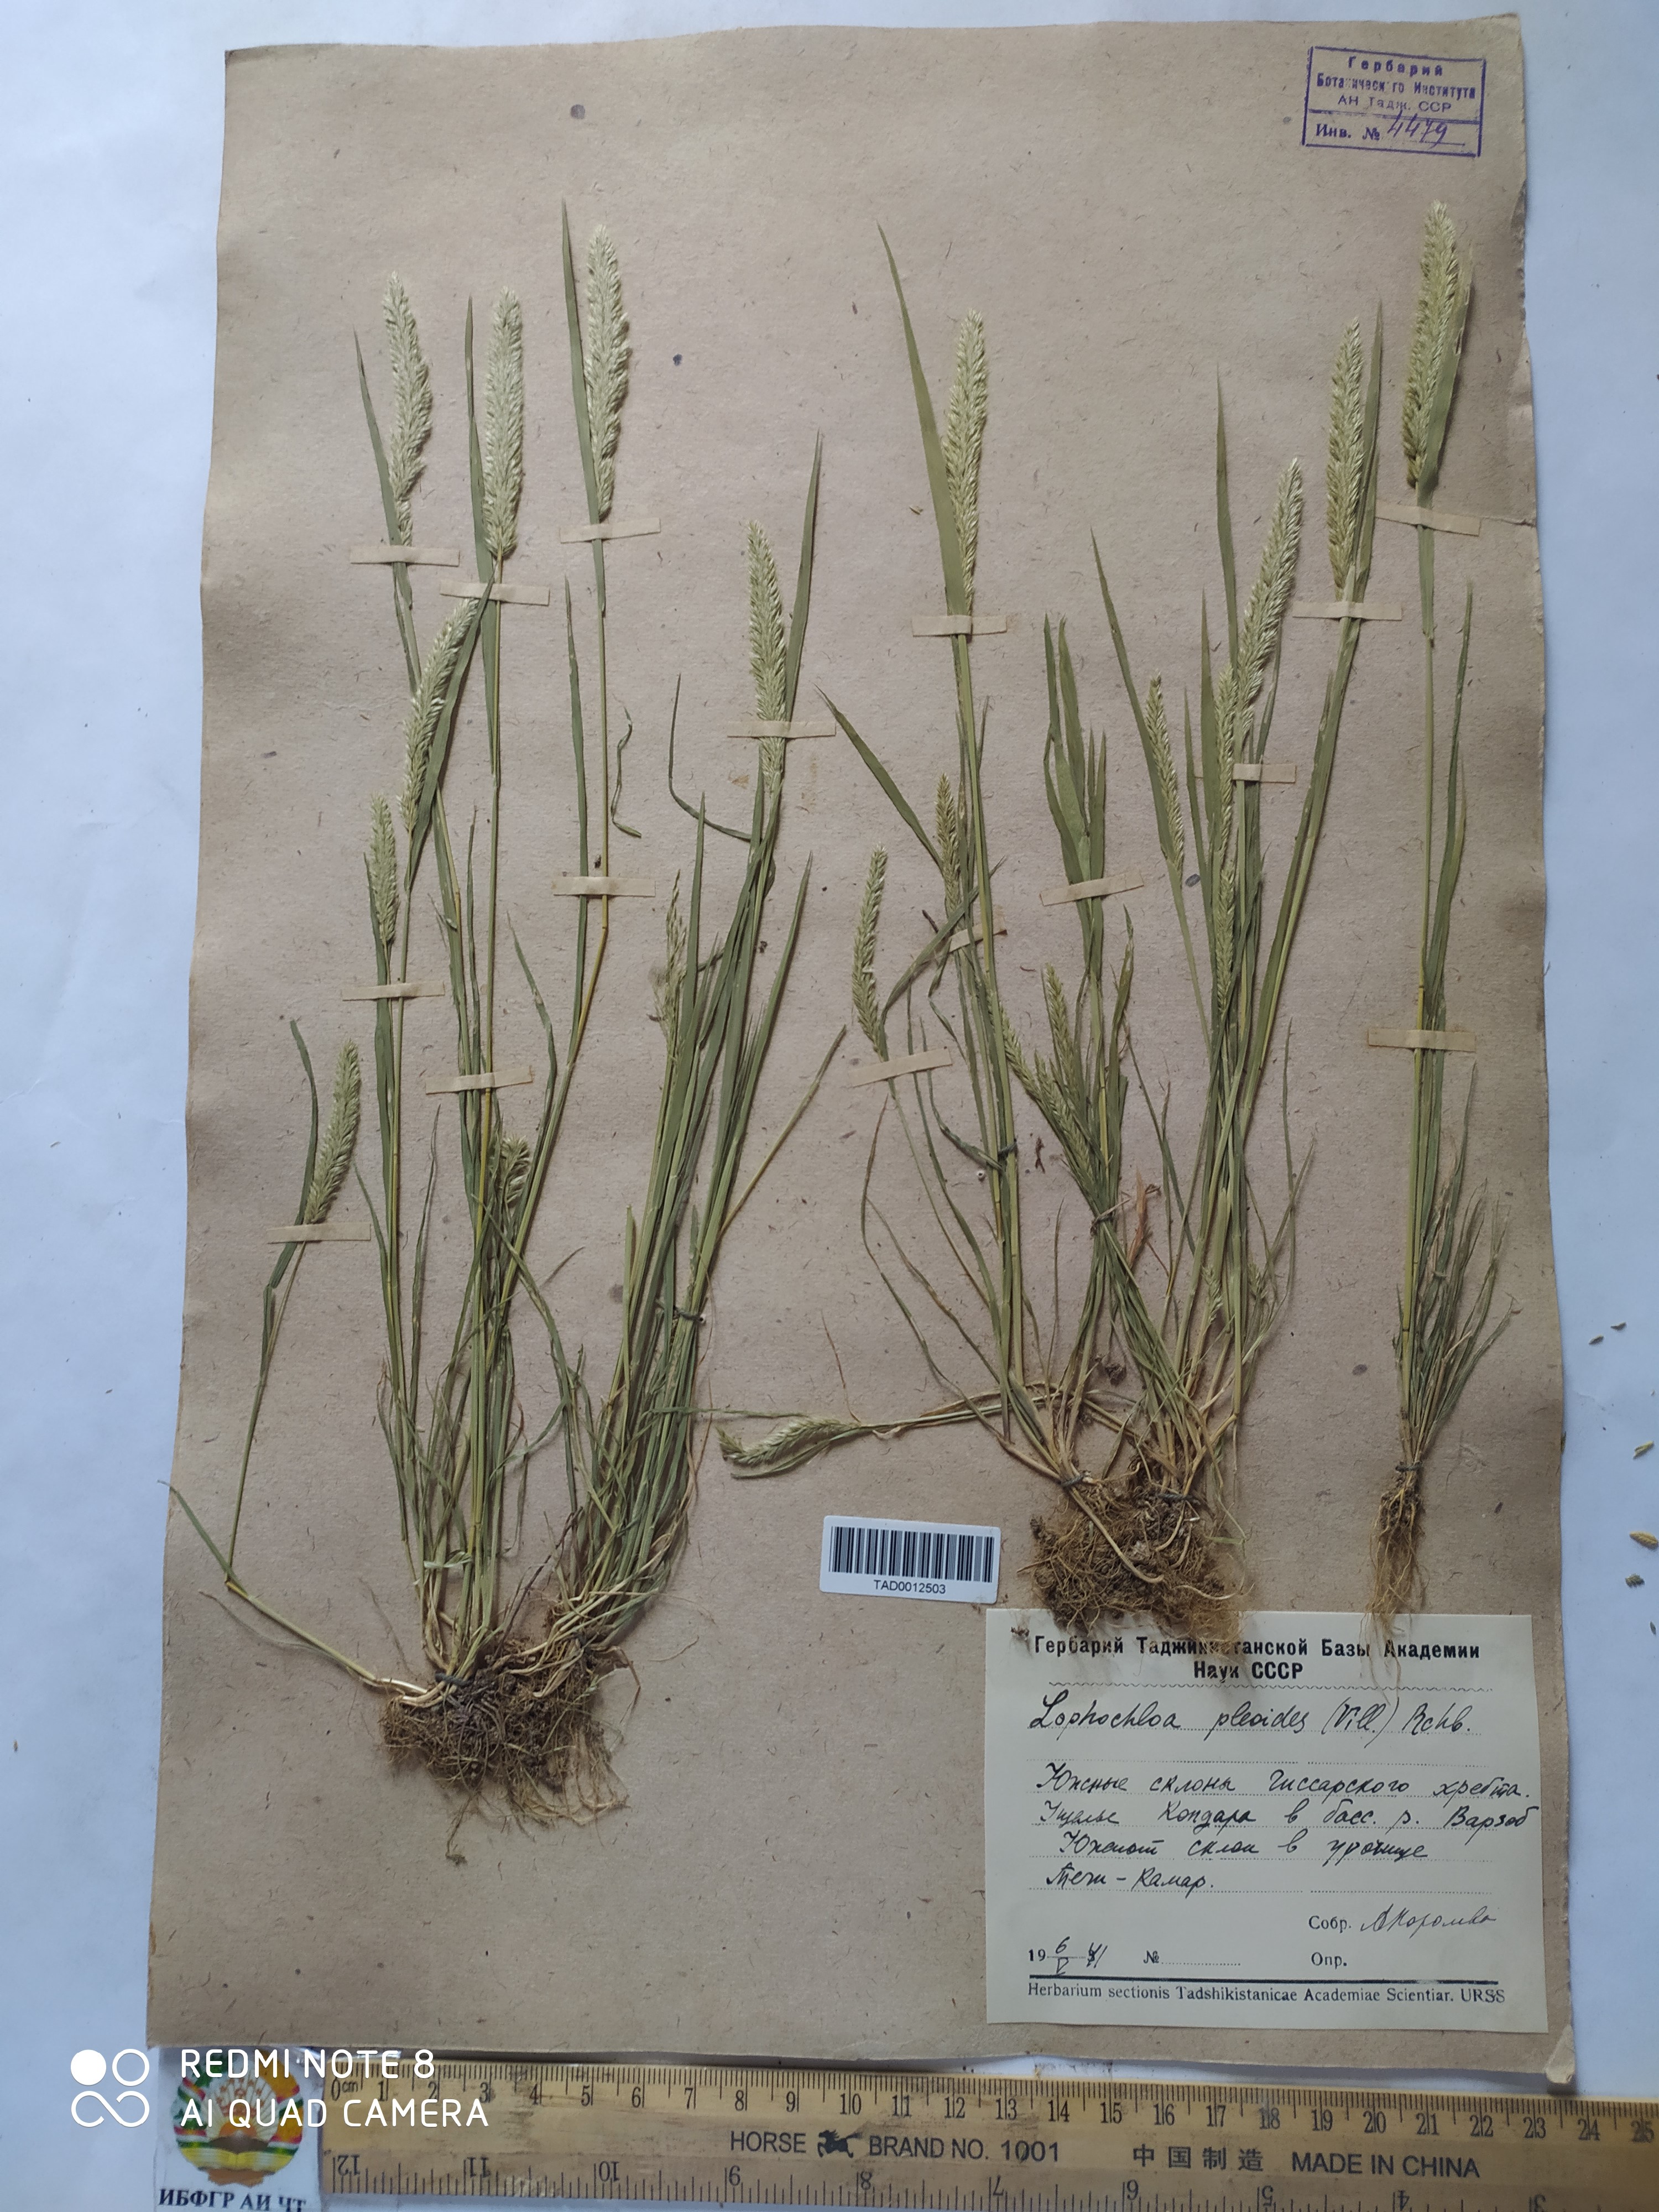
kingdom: Plantae
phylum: Tracheophyta
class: Liliopsida
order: Poales
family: Poaceae
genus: Rostraria
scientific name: Rostraria cristata
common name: Mediterranean hair-grass
